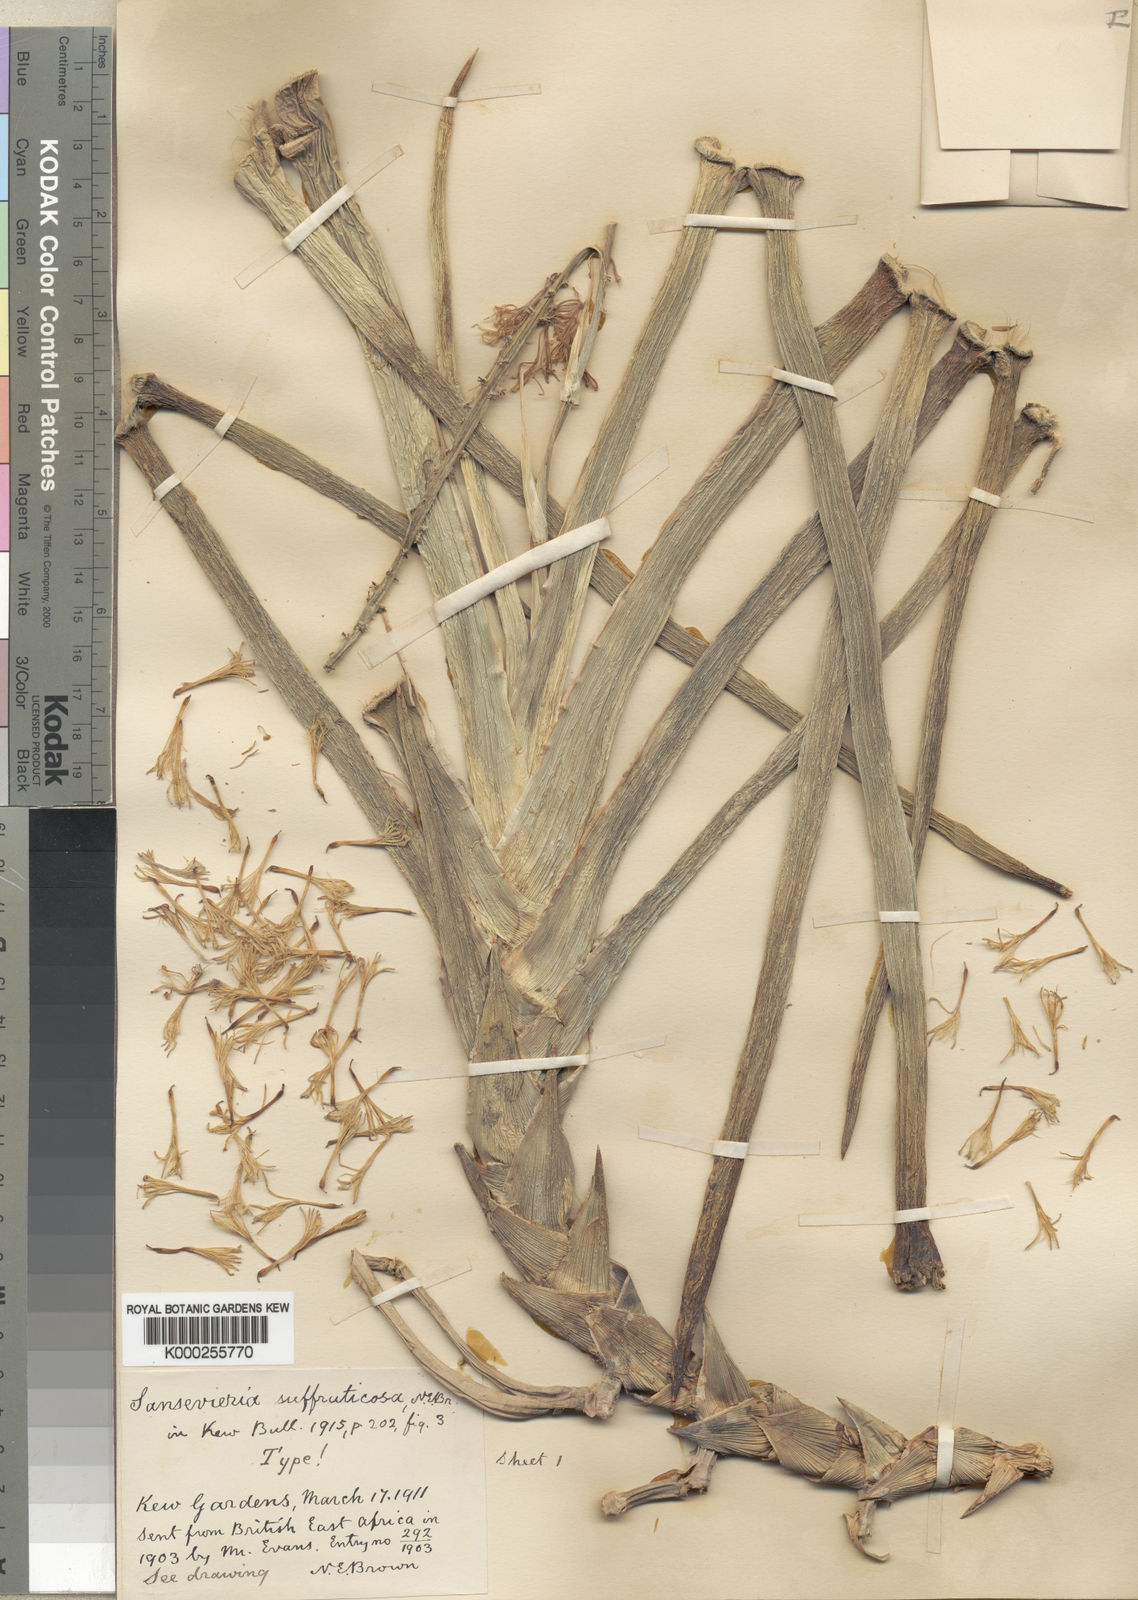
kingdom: Plantae
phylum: Tracheophyta
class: Liliopsida
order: Asparagales
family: Asparagaceae
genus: Dracaena
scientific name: Dracaena suffruticosa
